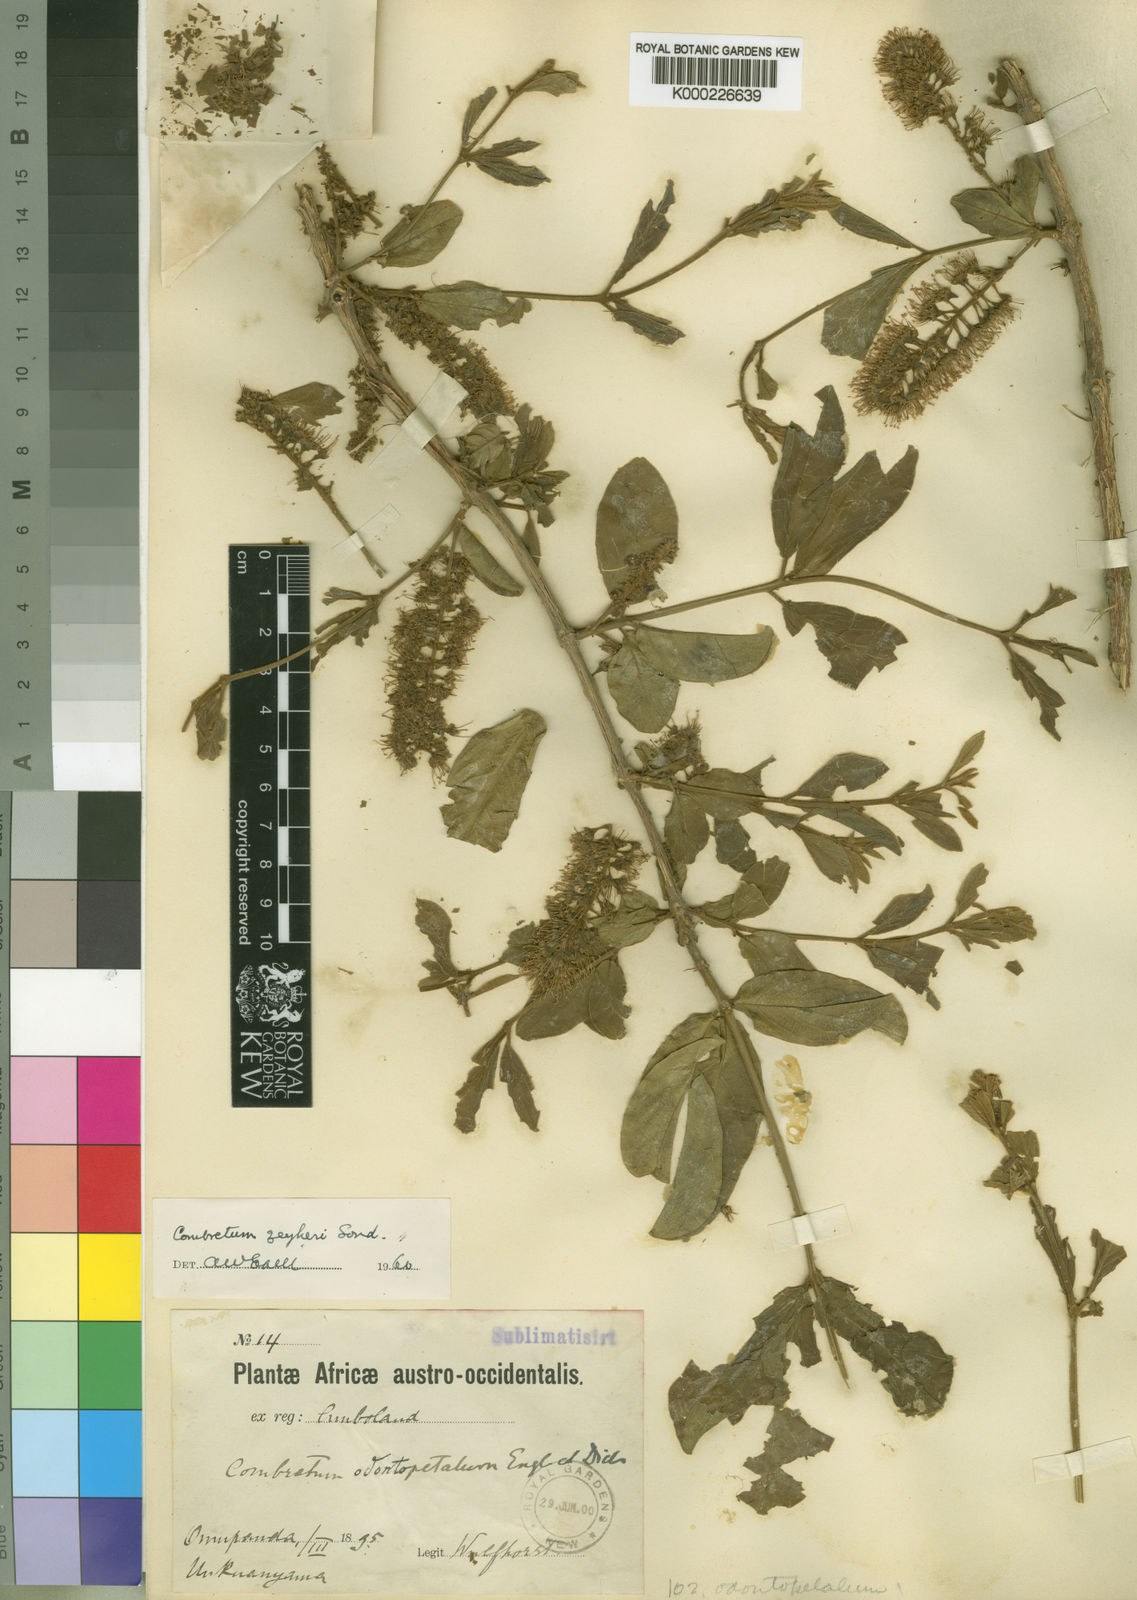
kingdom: Plantae
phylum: Tracheophyta
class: Magnoliopsida
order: Myrtales
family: Combretaceae
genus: Combretum
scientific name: Combretum zeyheri
